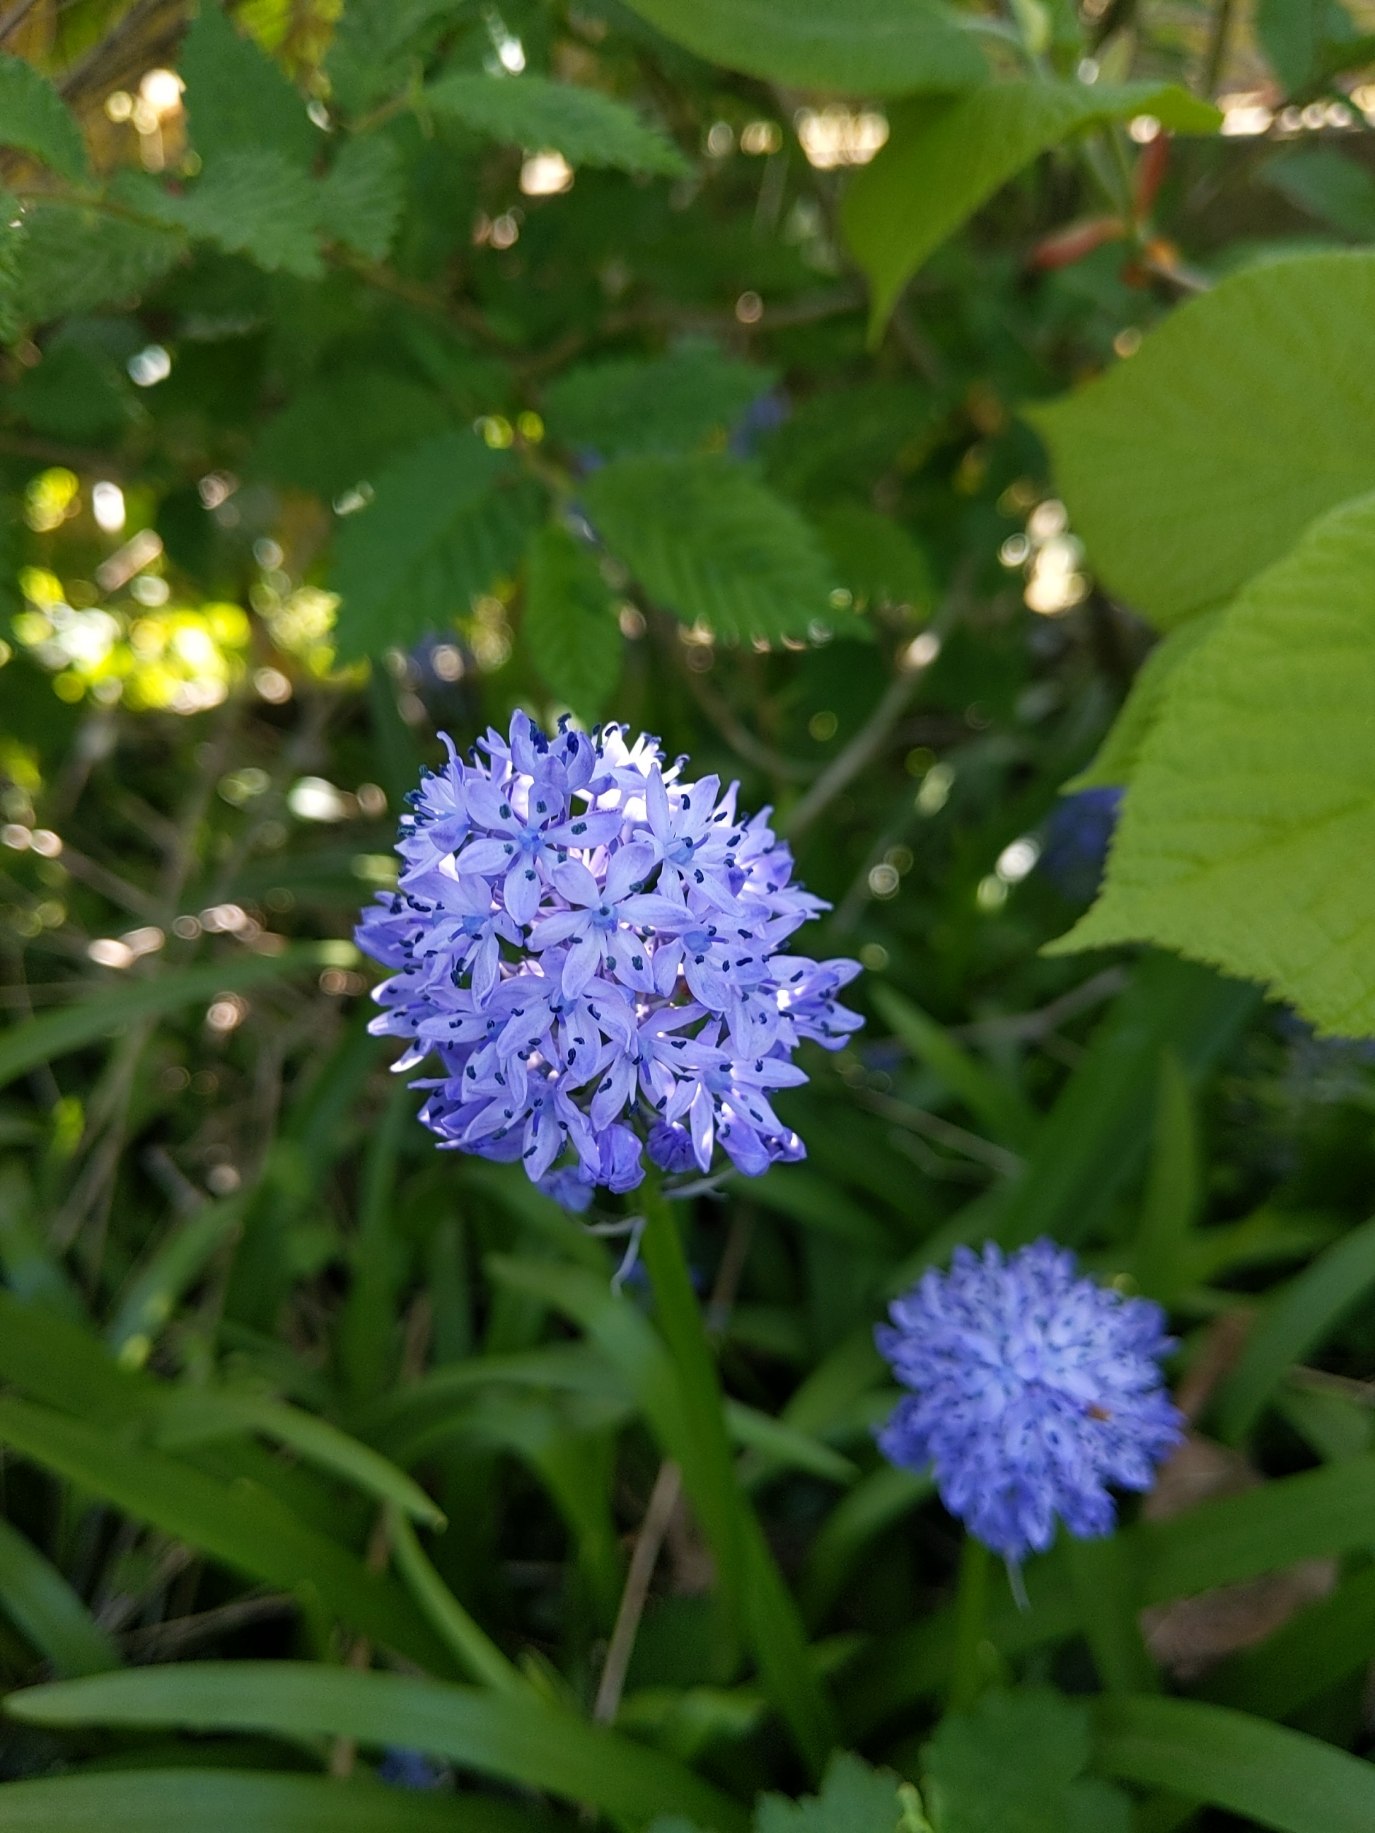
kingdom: Plantae
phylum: Tracheophyta
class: Liliopsida
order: Asparagales
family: Asparagaceae
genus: Hyacinthoides
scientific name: Hyacinthoides italica
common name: Italiensk skilla
